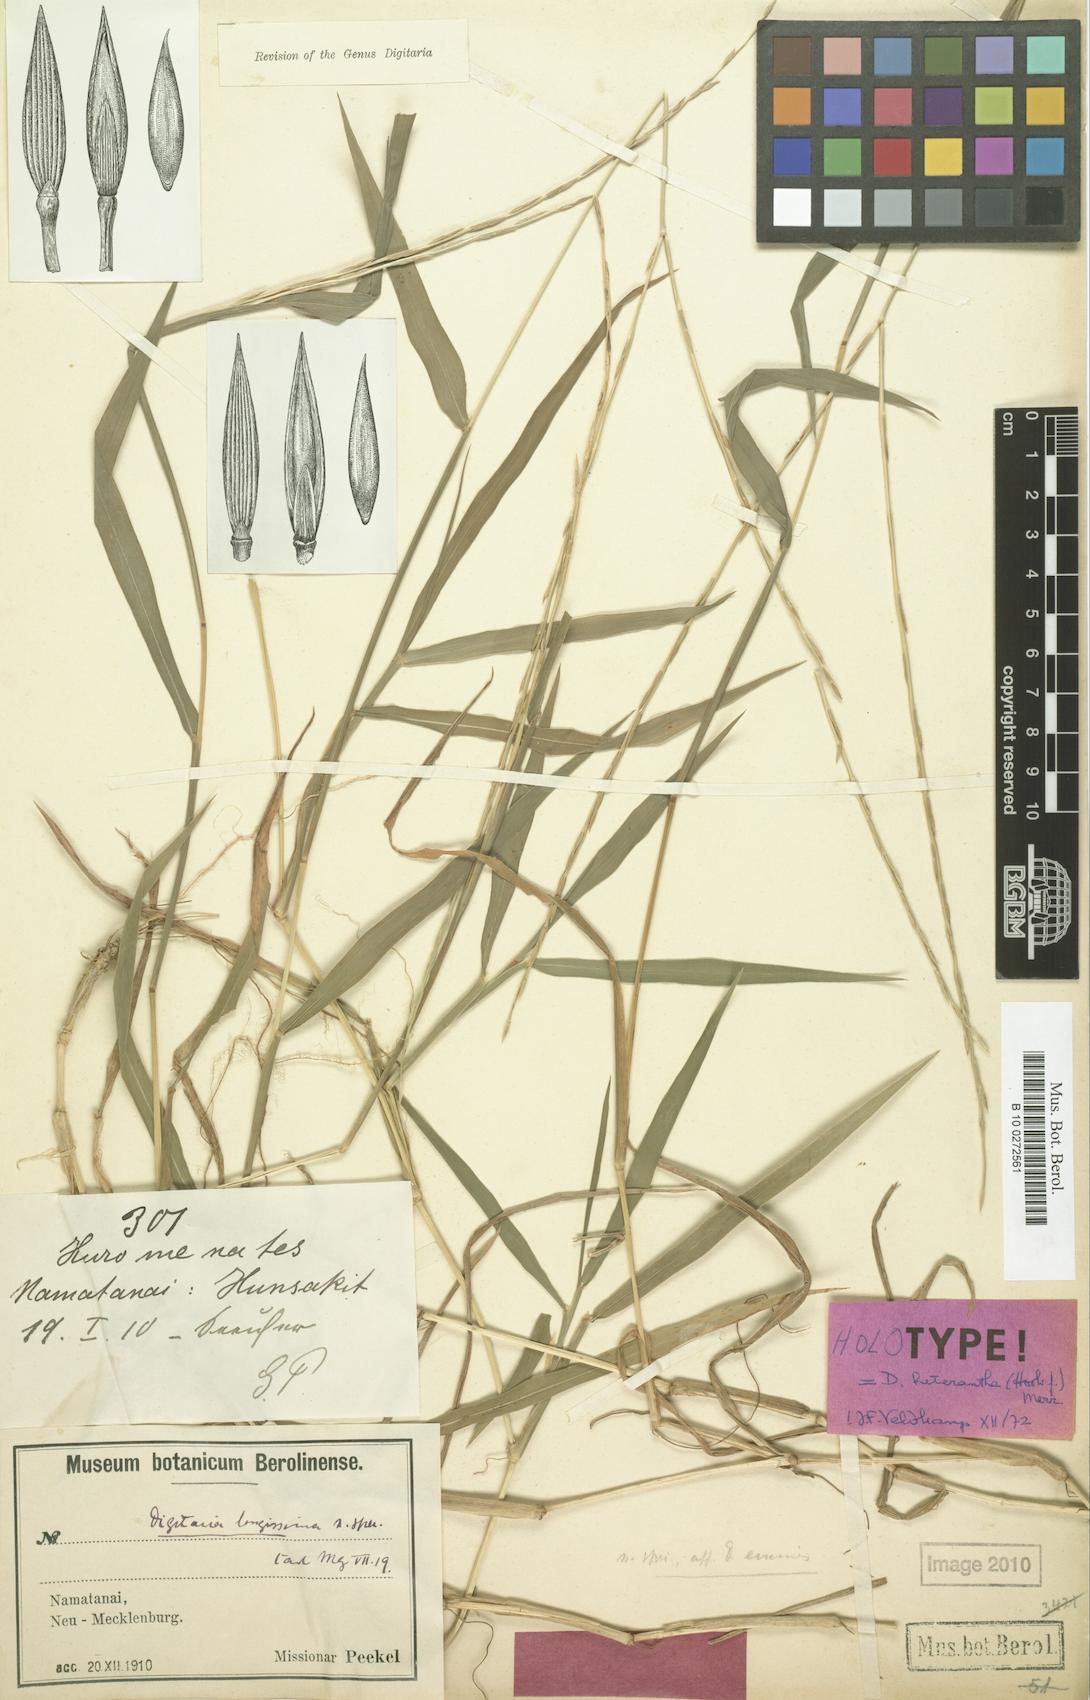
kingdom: Plantae
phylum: Tracheophyta
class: Liliopsida
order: Poales
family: Poaceae
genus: Digitaria
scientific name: Digitaria heterantha
